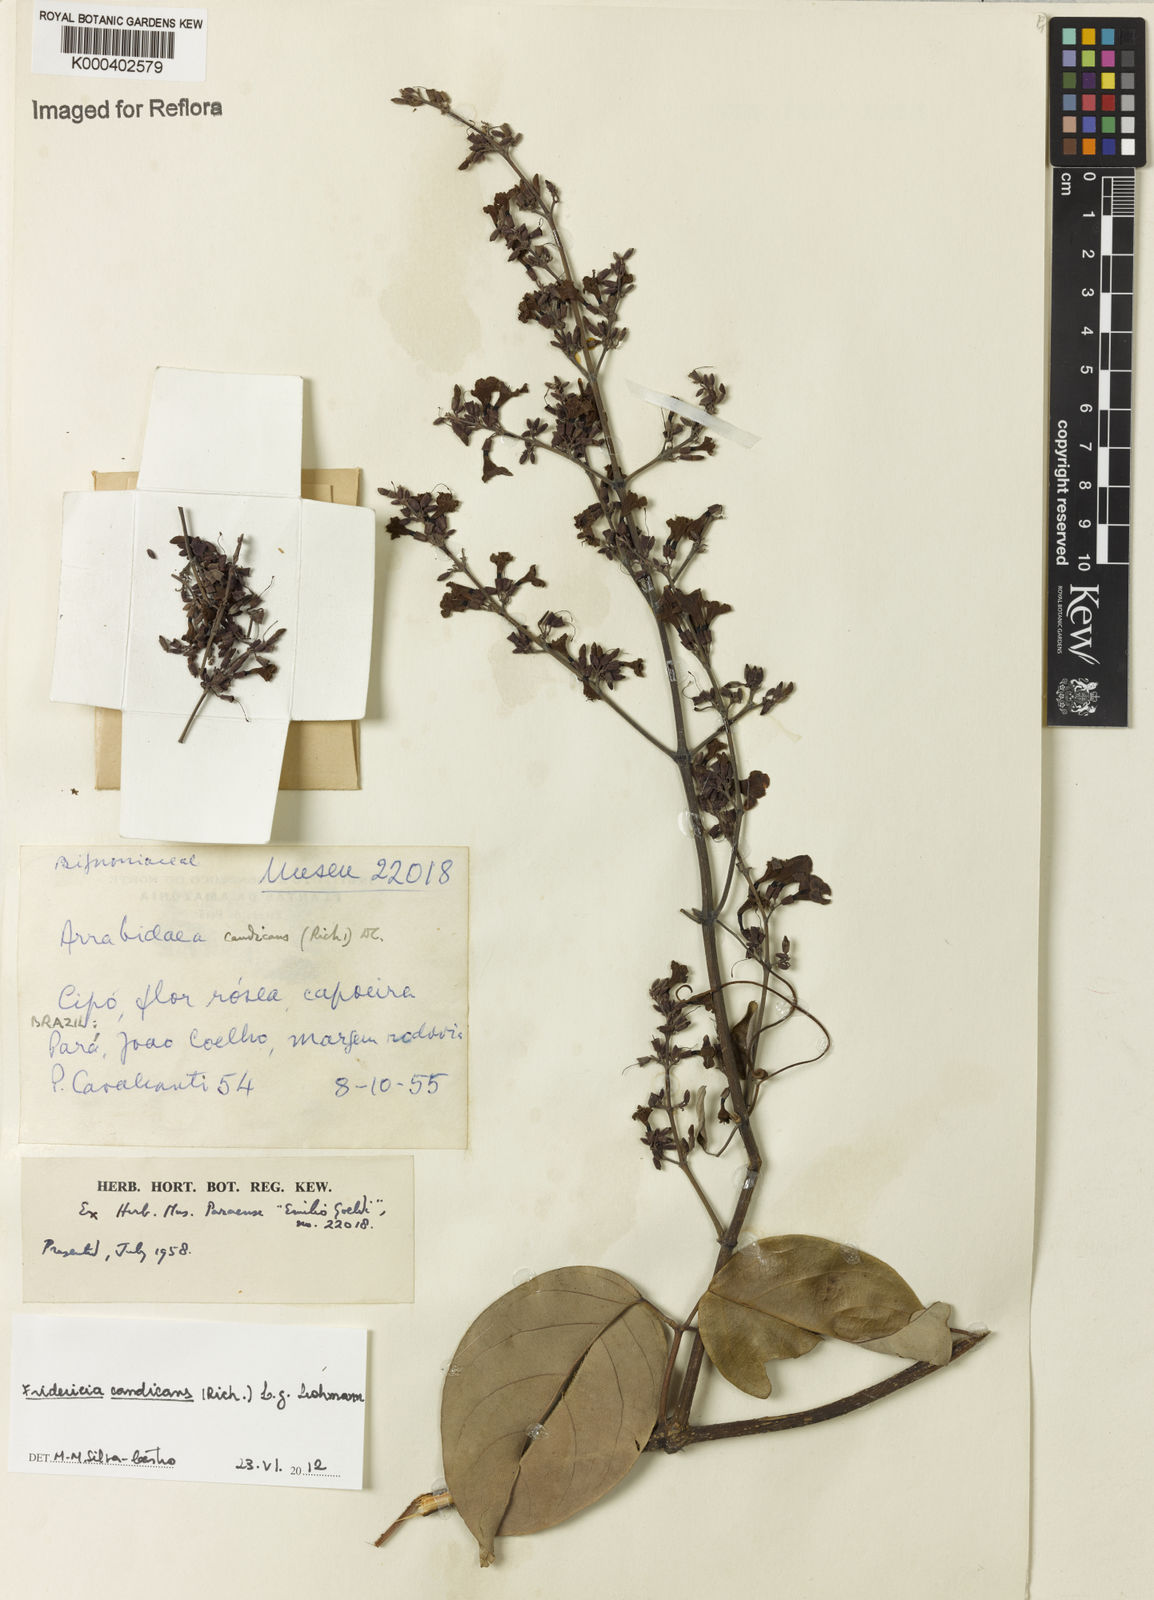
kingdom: Plantae
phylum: Tracheophyta
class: Magnoliopsida
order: Lamiales
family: Bignoniaceae
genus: Fridericia
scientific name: Fridericia
